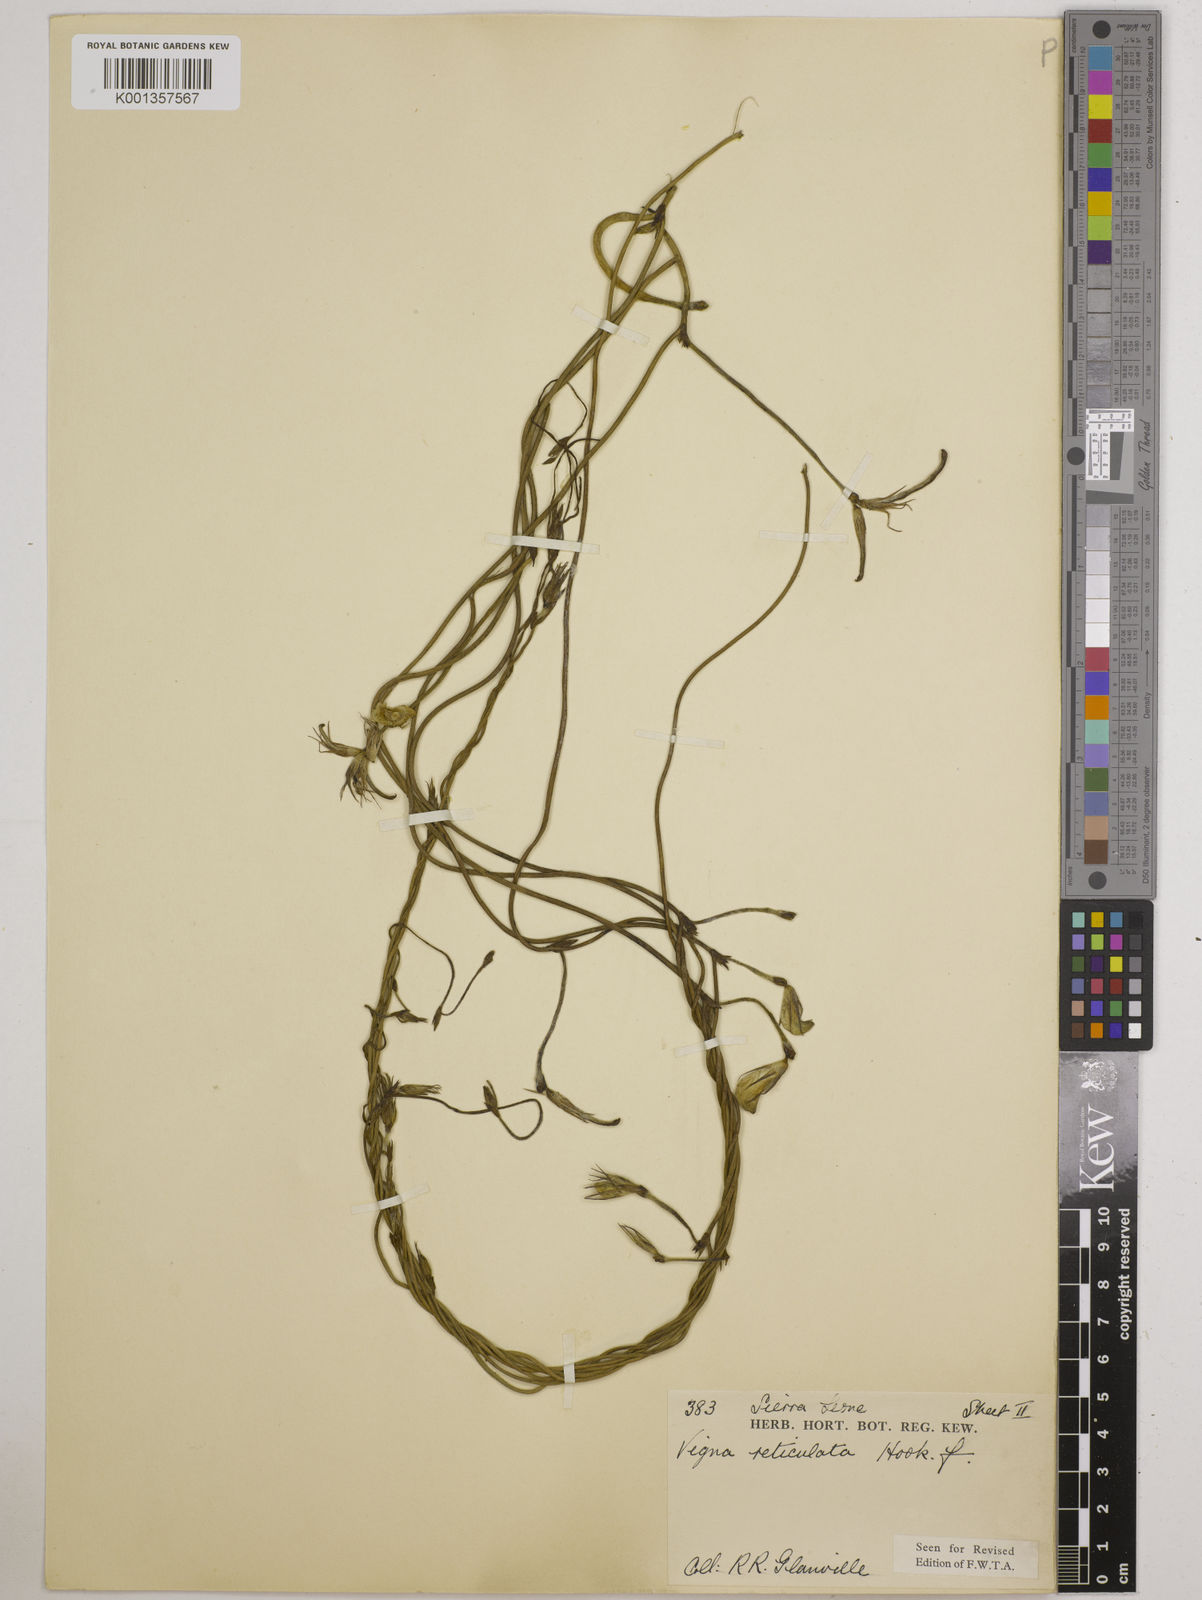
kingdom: Plantae
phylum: Tracheophyta
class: Magnoliopsida
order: Fabales
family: Fabaceae
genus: Vigna
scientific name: Vigna reticulata
